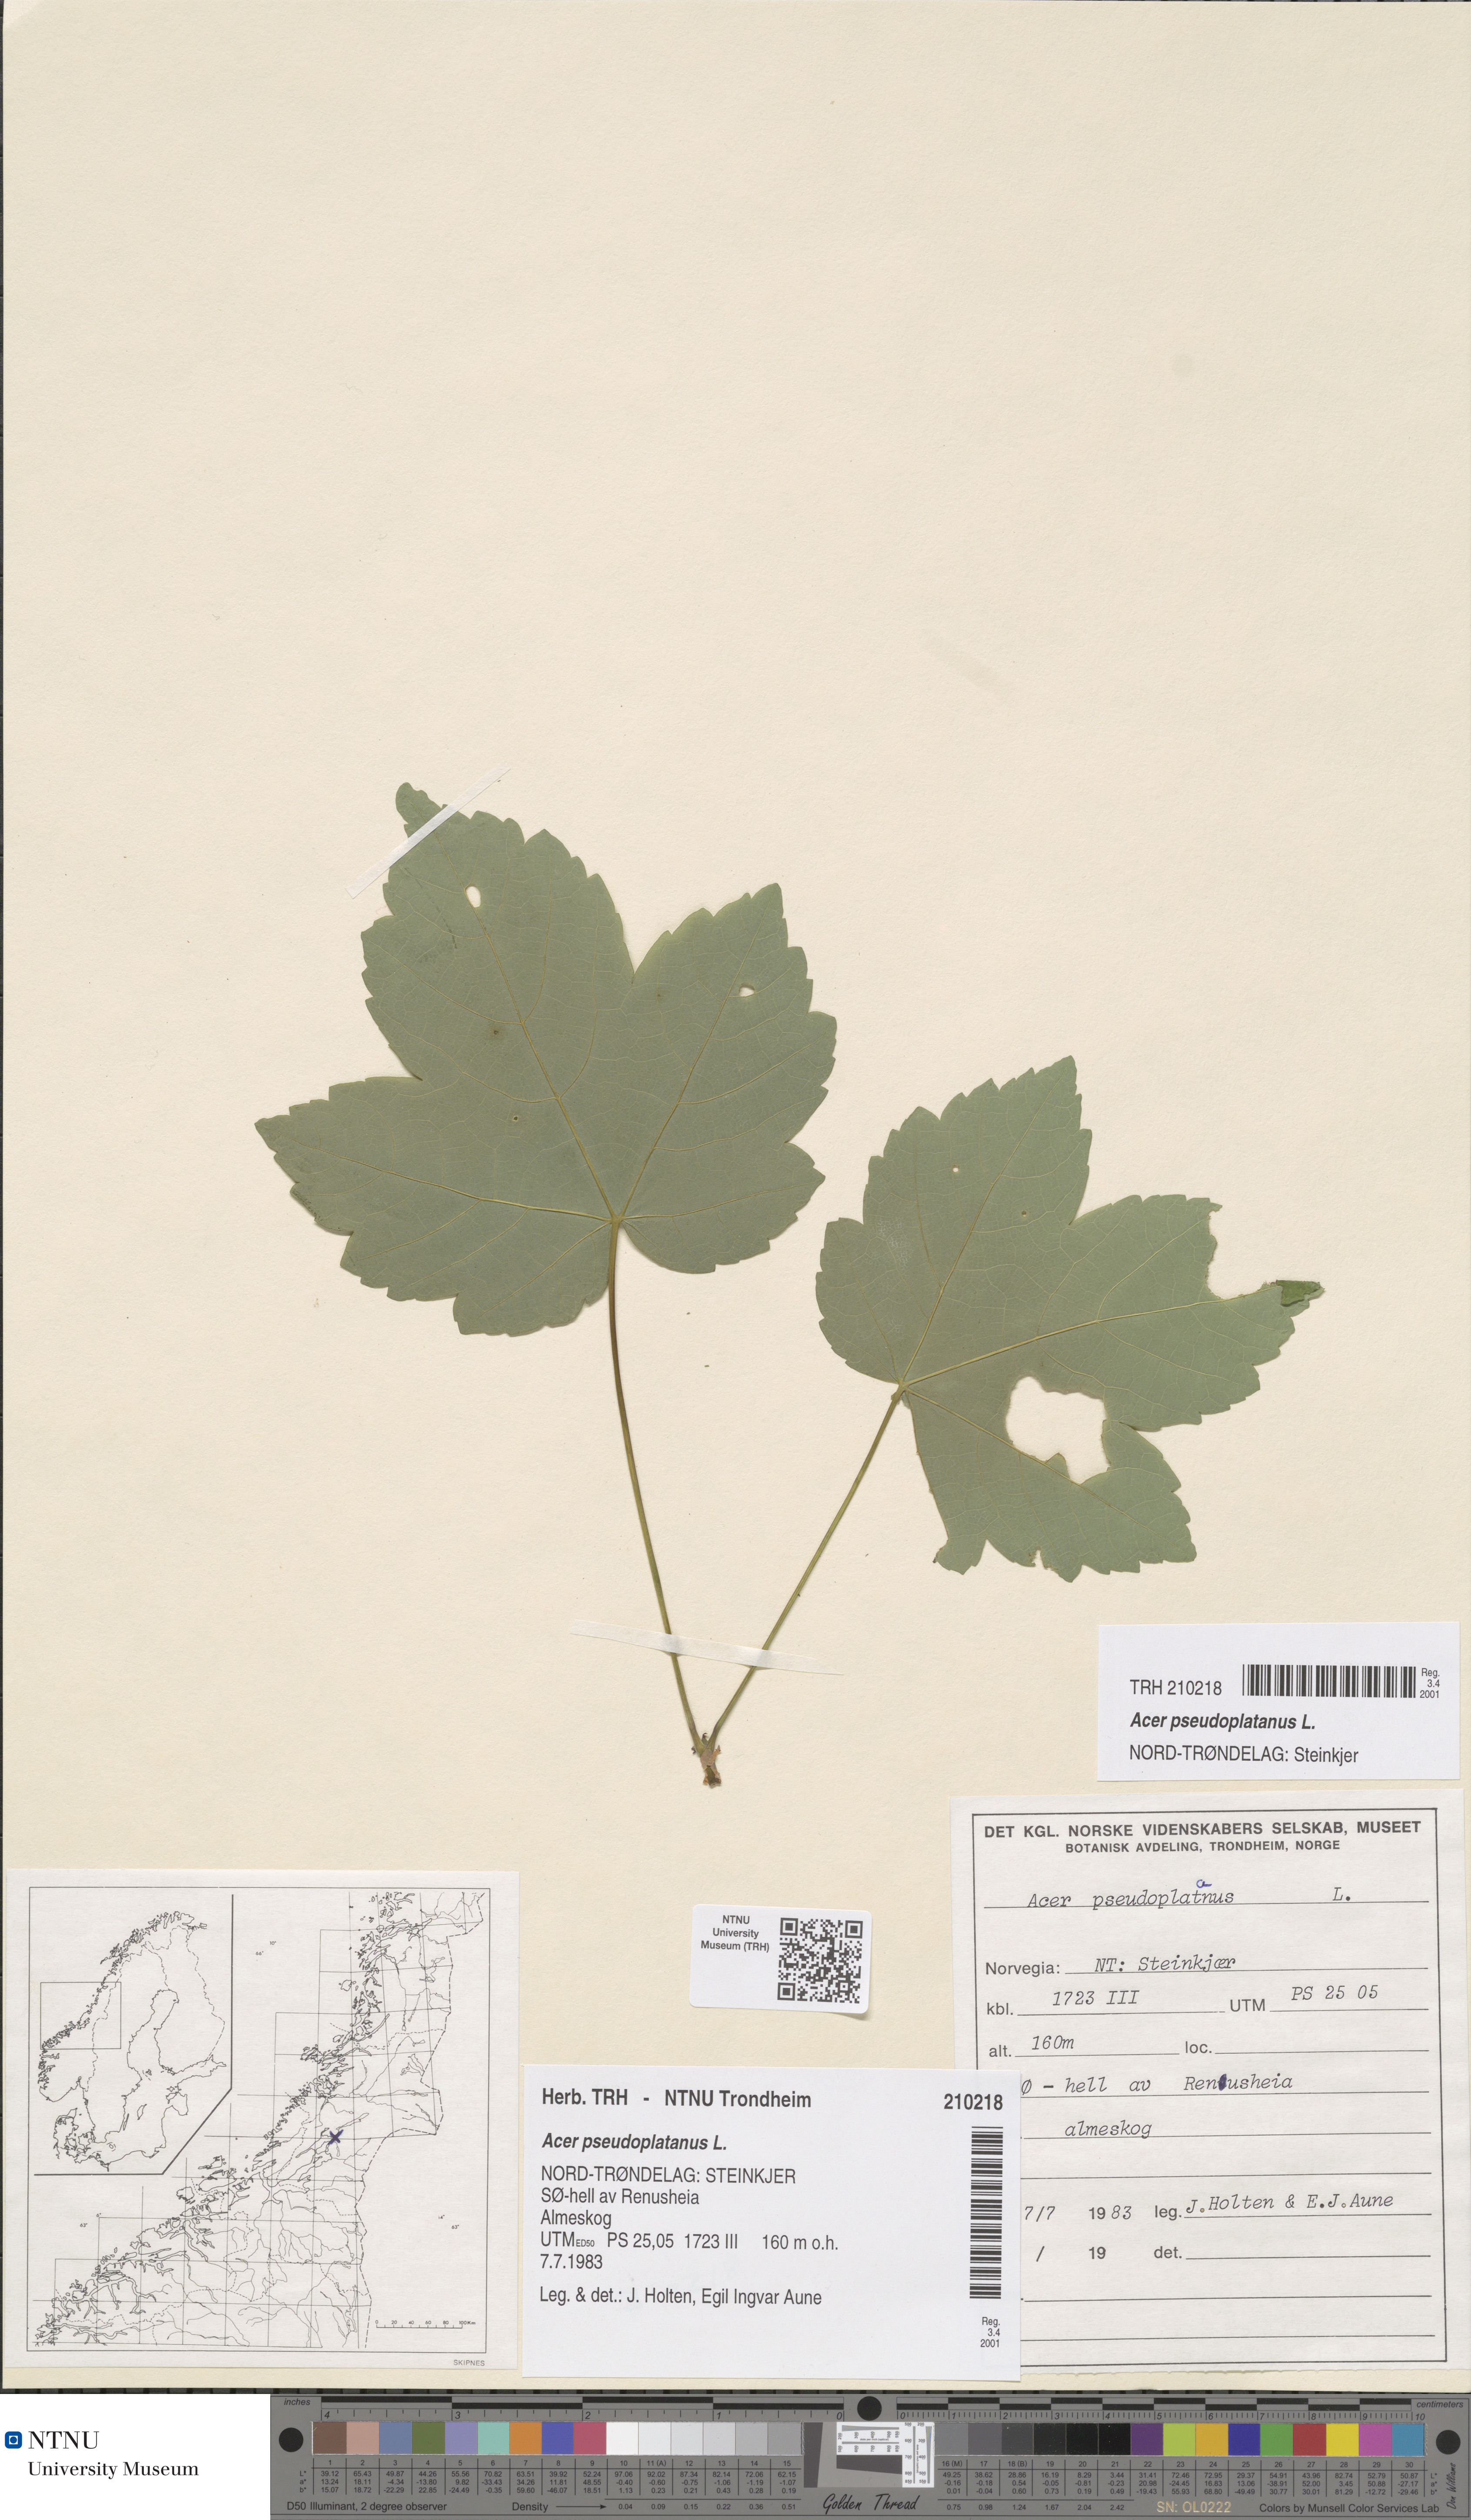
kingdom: Plantae
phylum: Tracheophyta
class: Magnoliopsida
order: Sapindales
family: Sapindaceae
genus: Acer
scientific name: Acer pseudoplatanus
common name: Sycamore
